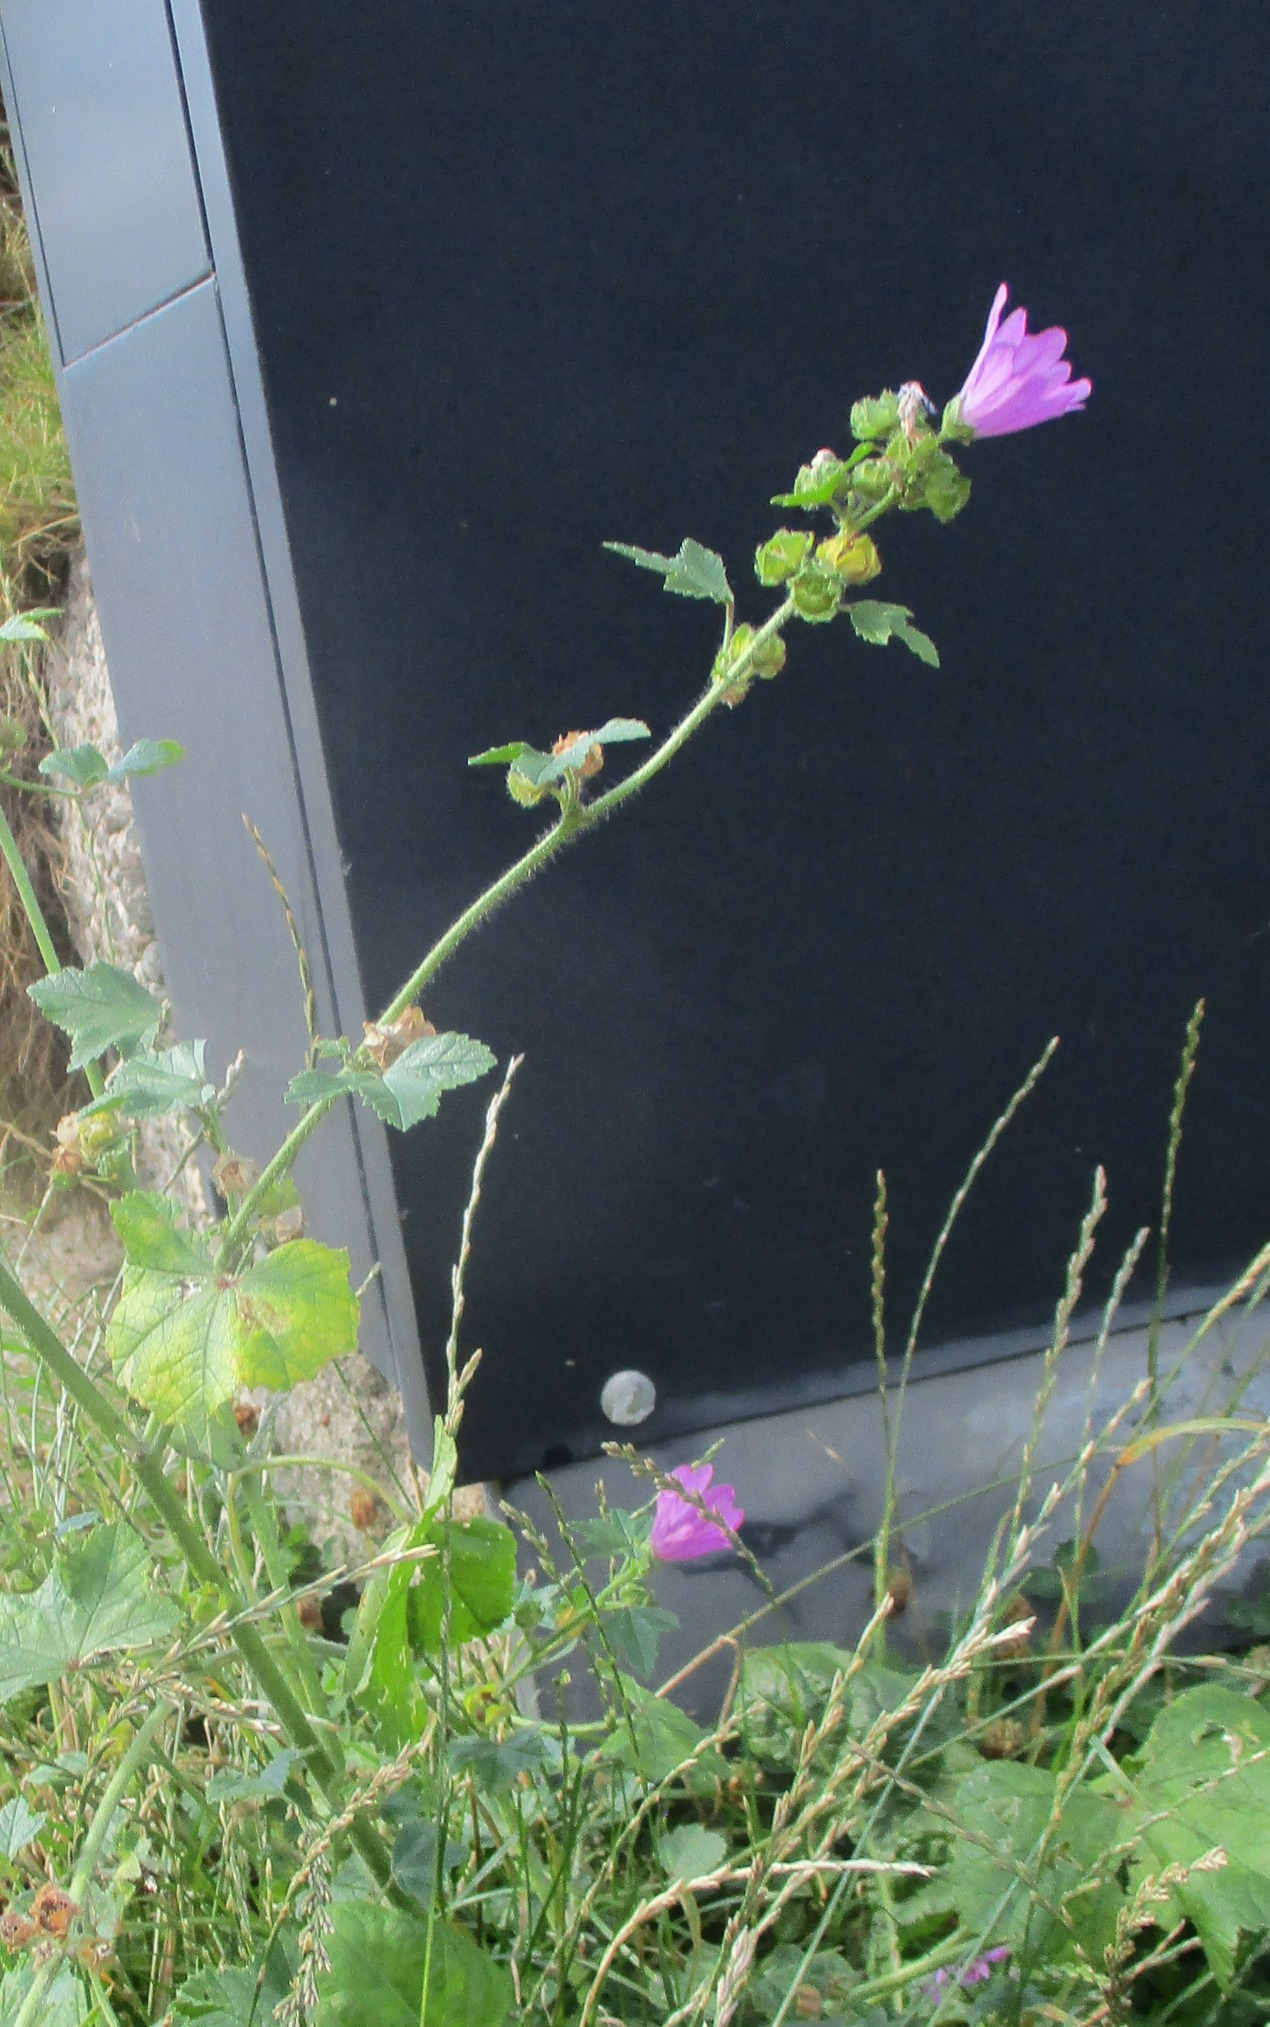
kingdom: Plantae
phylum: Tracheophyta
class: Magnoliopsida
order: Malvales
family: Malvaceae
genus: Malva
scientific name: Malva sylvestris
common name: Almindelig katost
